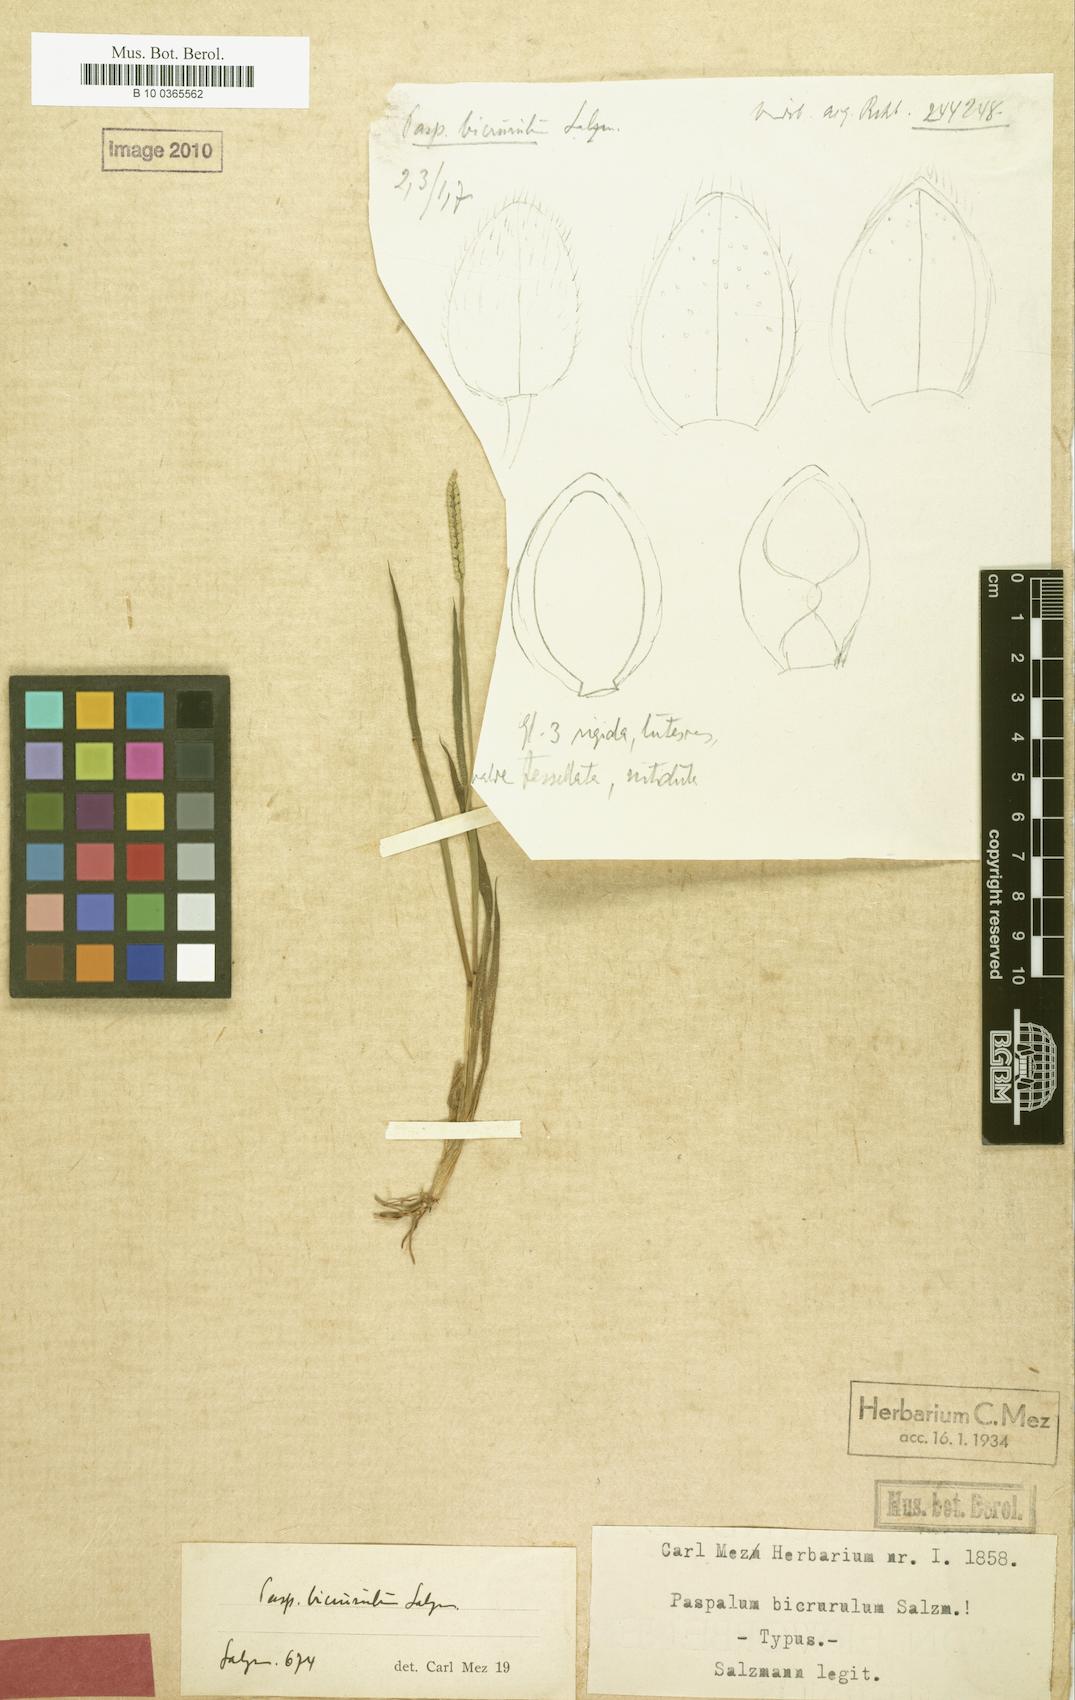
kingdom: Plantae
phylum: Tracheophyta
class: Liliopsida
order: Poales
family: Poaceae
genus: Paspalum
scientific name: Paspalum pumilum
